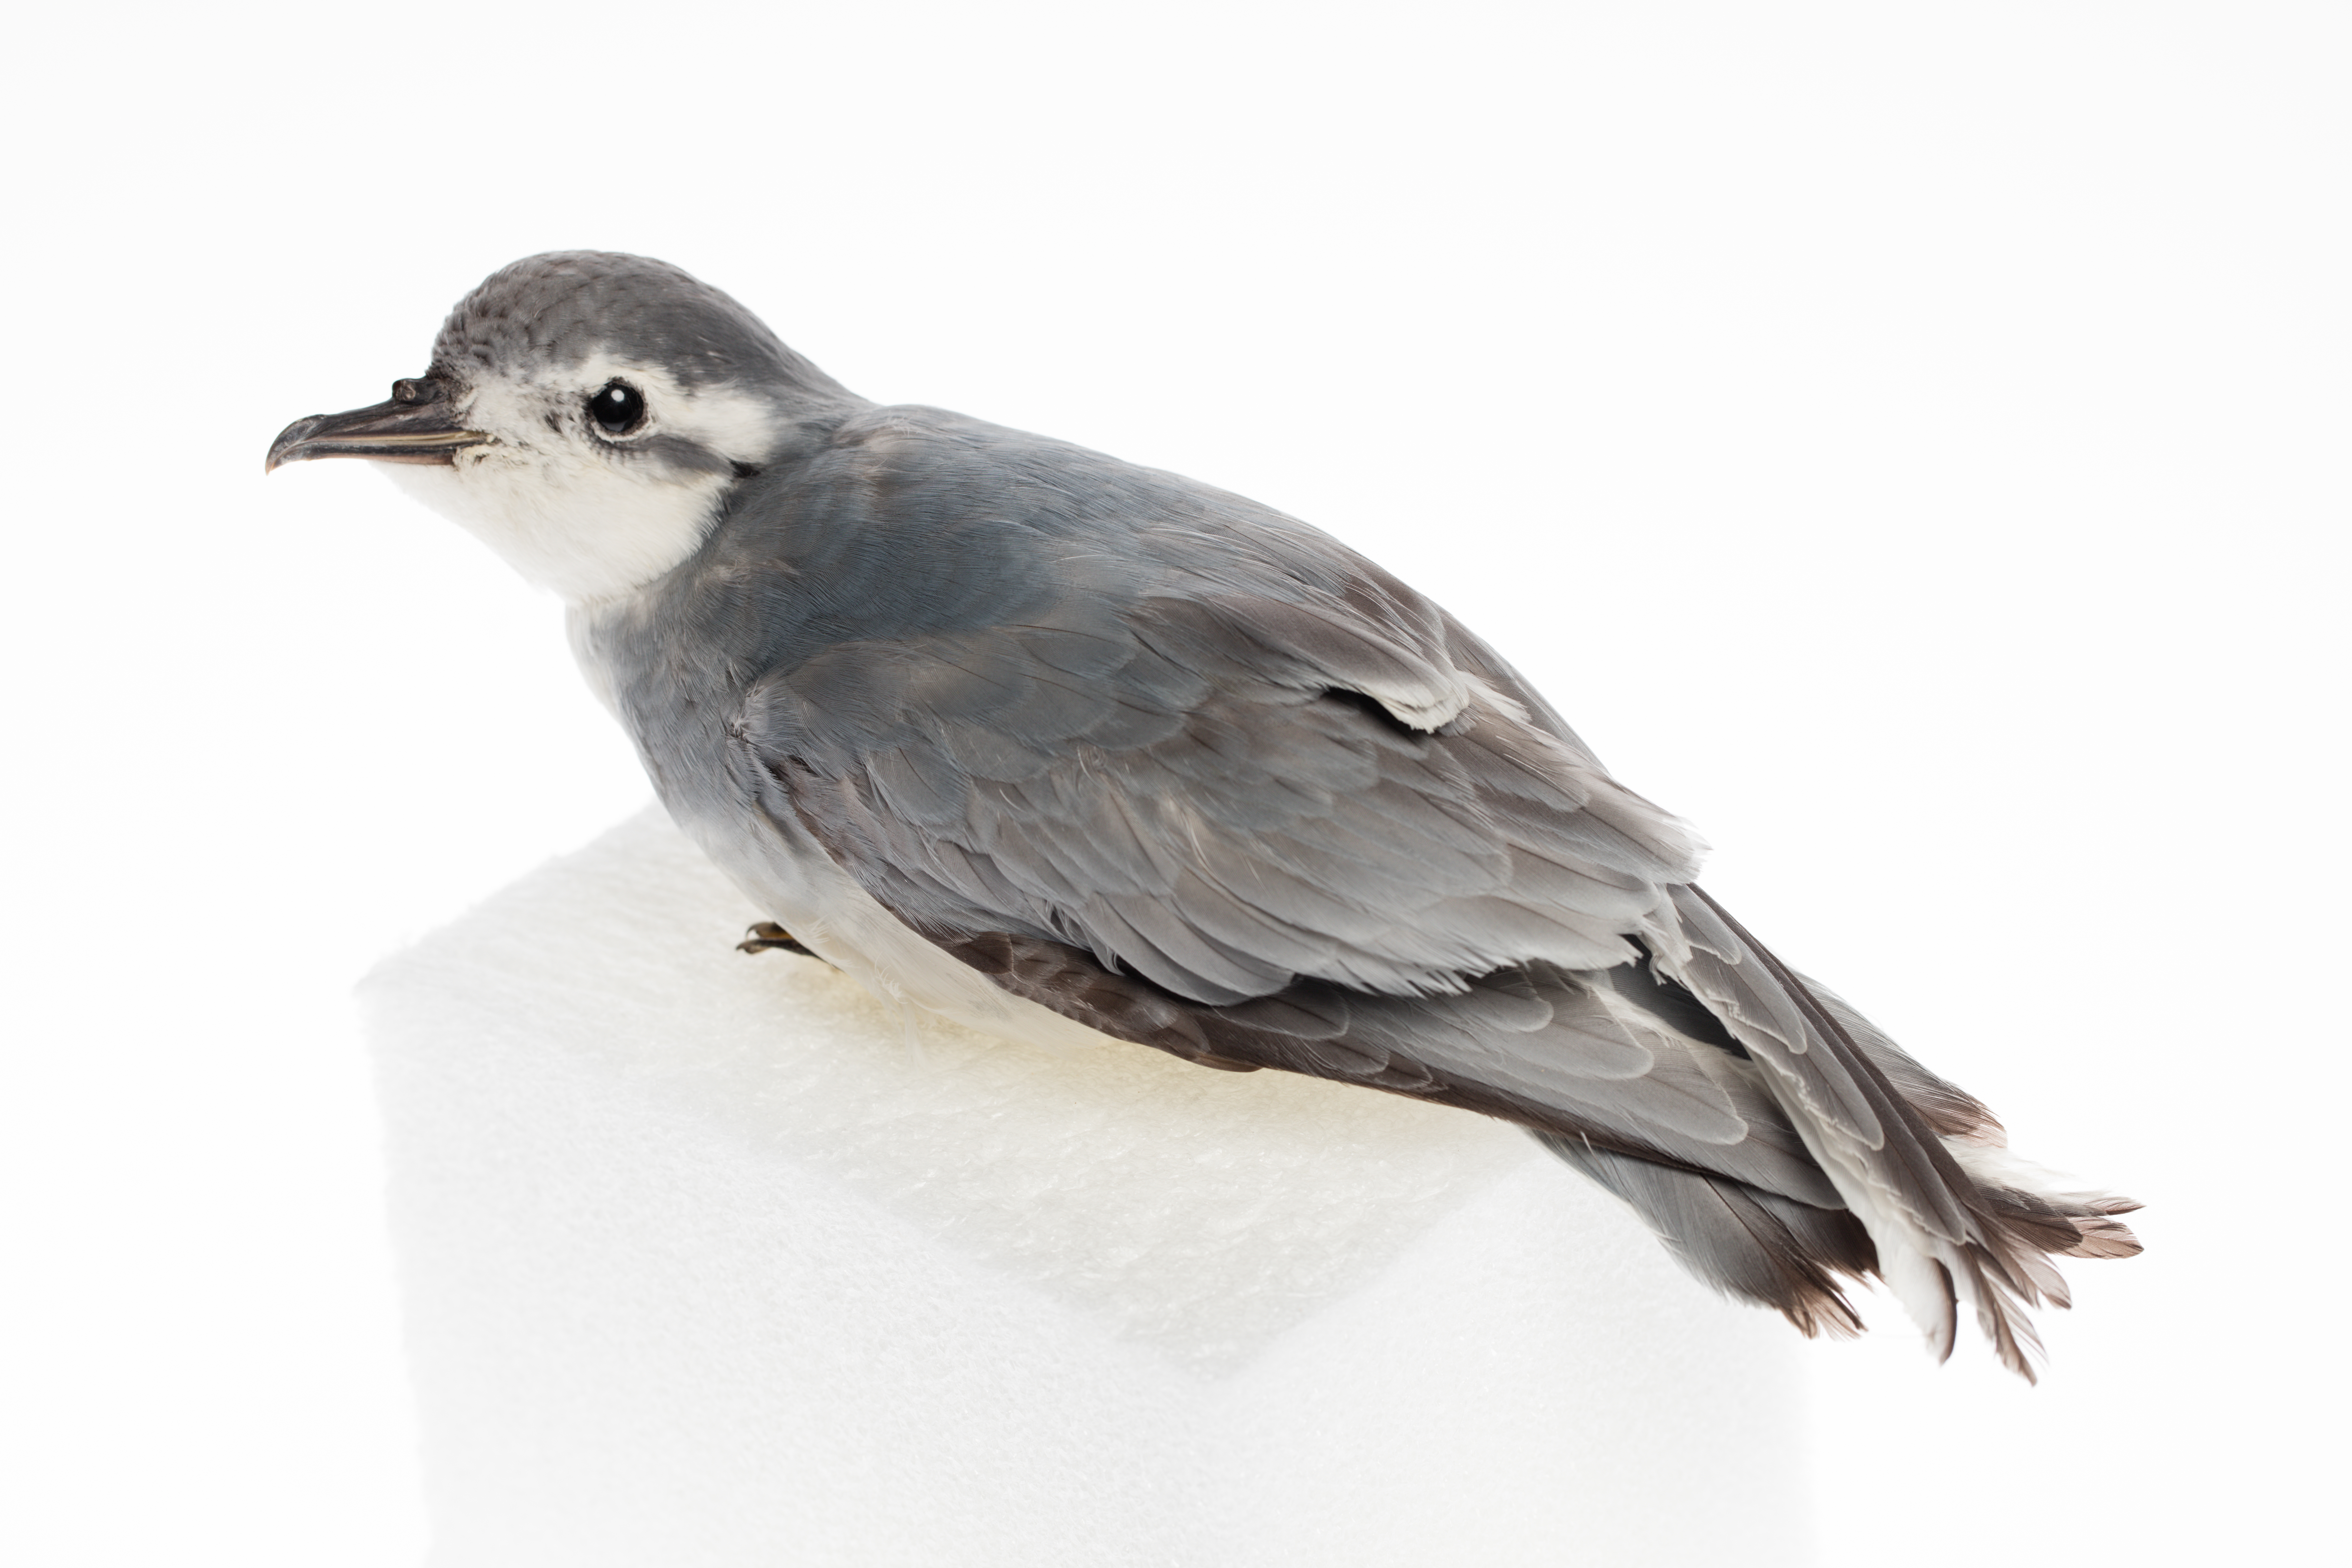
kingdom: Animalia
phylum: Chordata
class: Aves
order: Procellariiformes
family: Procellariidae
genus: Pachyptila
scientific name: Pachyptila belcheri
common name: Slender-billed prion
